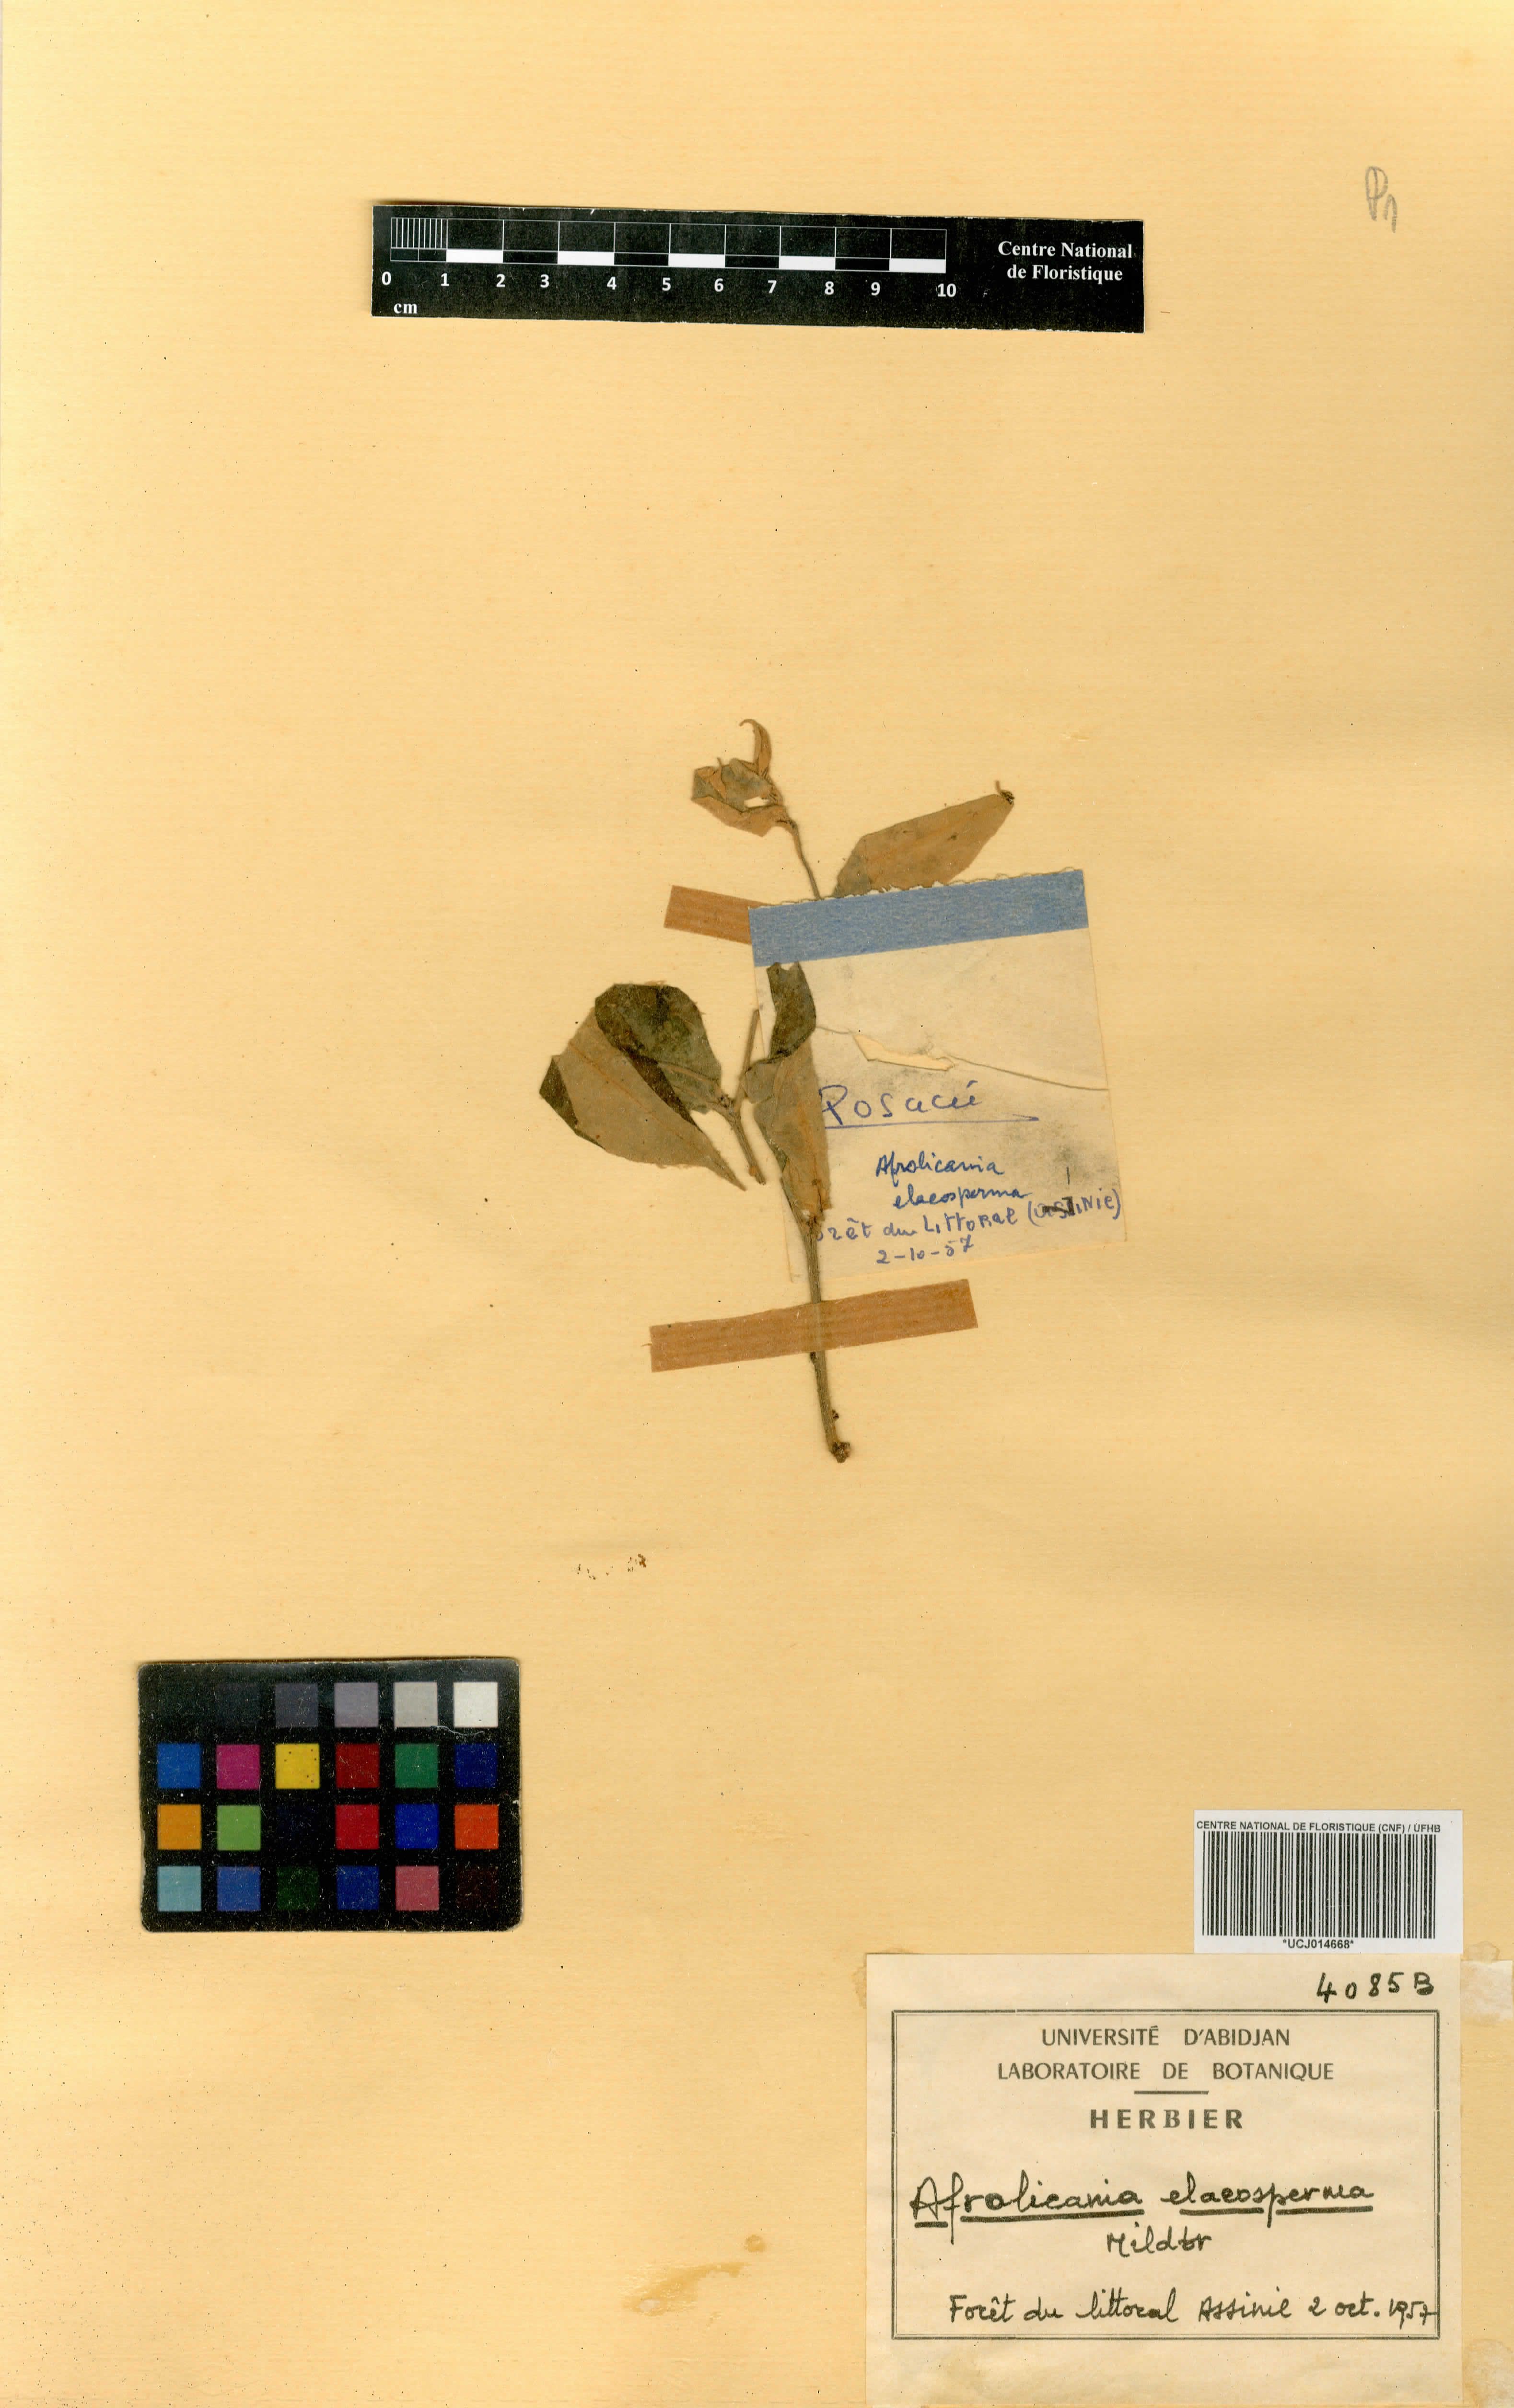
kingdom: Plantae
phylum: Tracheophyta
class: Magnoliopsida
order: Malpighiales
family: Chrysobalanaceae
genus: Afrolicania
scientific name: Afrolicania elaeosperma
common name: Nikko
